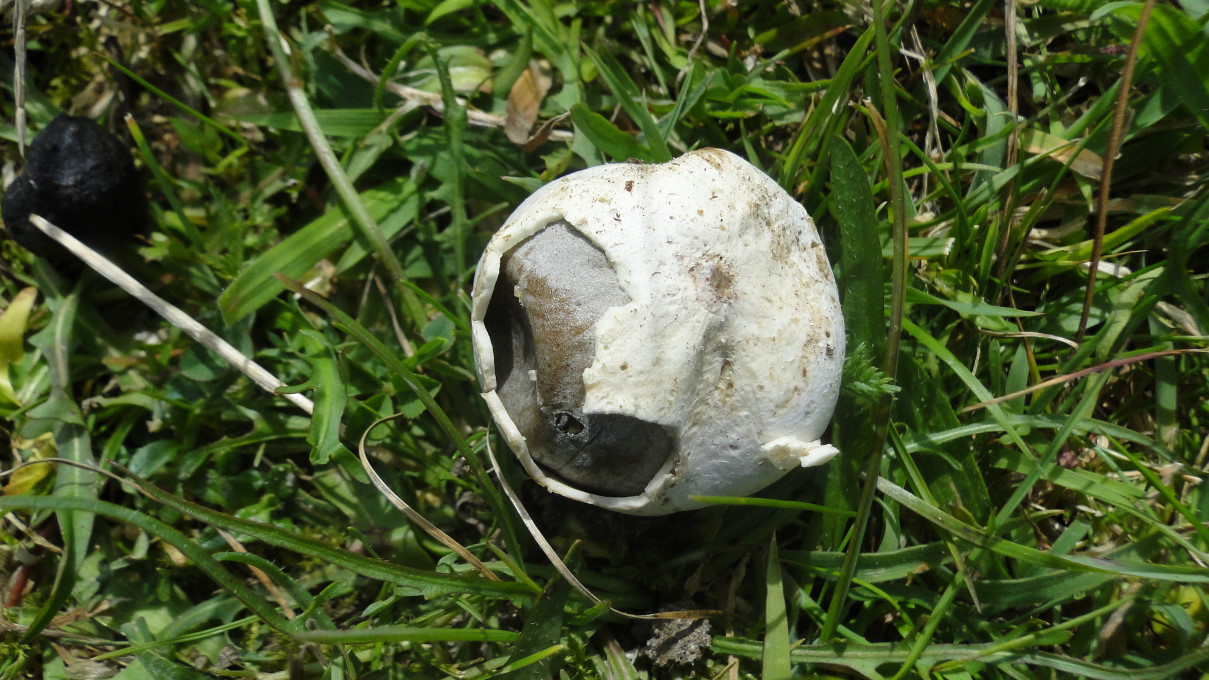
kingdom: Fungi
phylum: Basidiomycota
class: Agaricomycetes
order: Agaricales
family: Lycoperdaceae
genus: Bovista
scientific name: Bovista plumbea
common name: blygrå bovist
